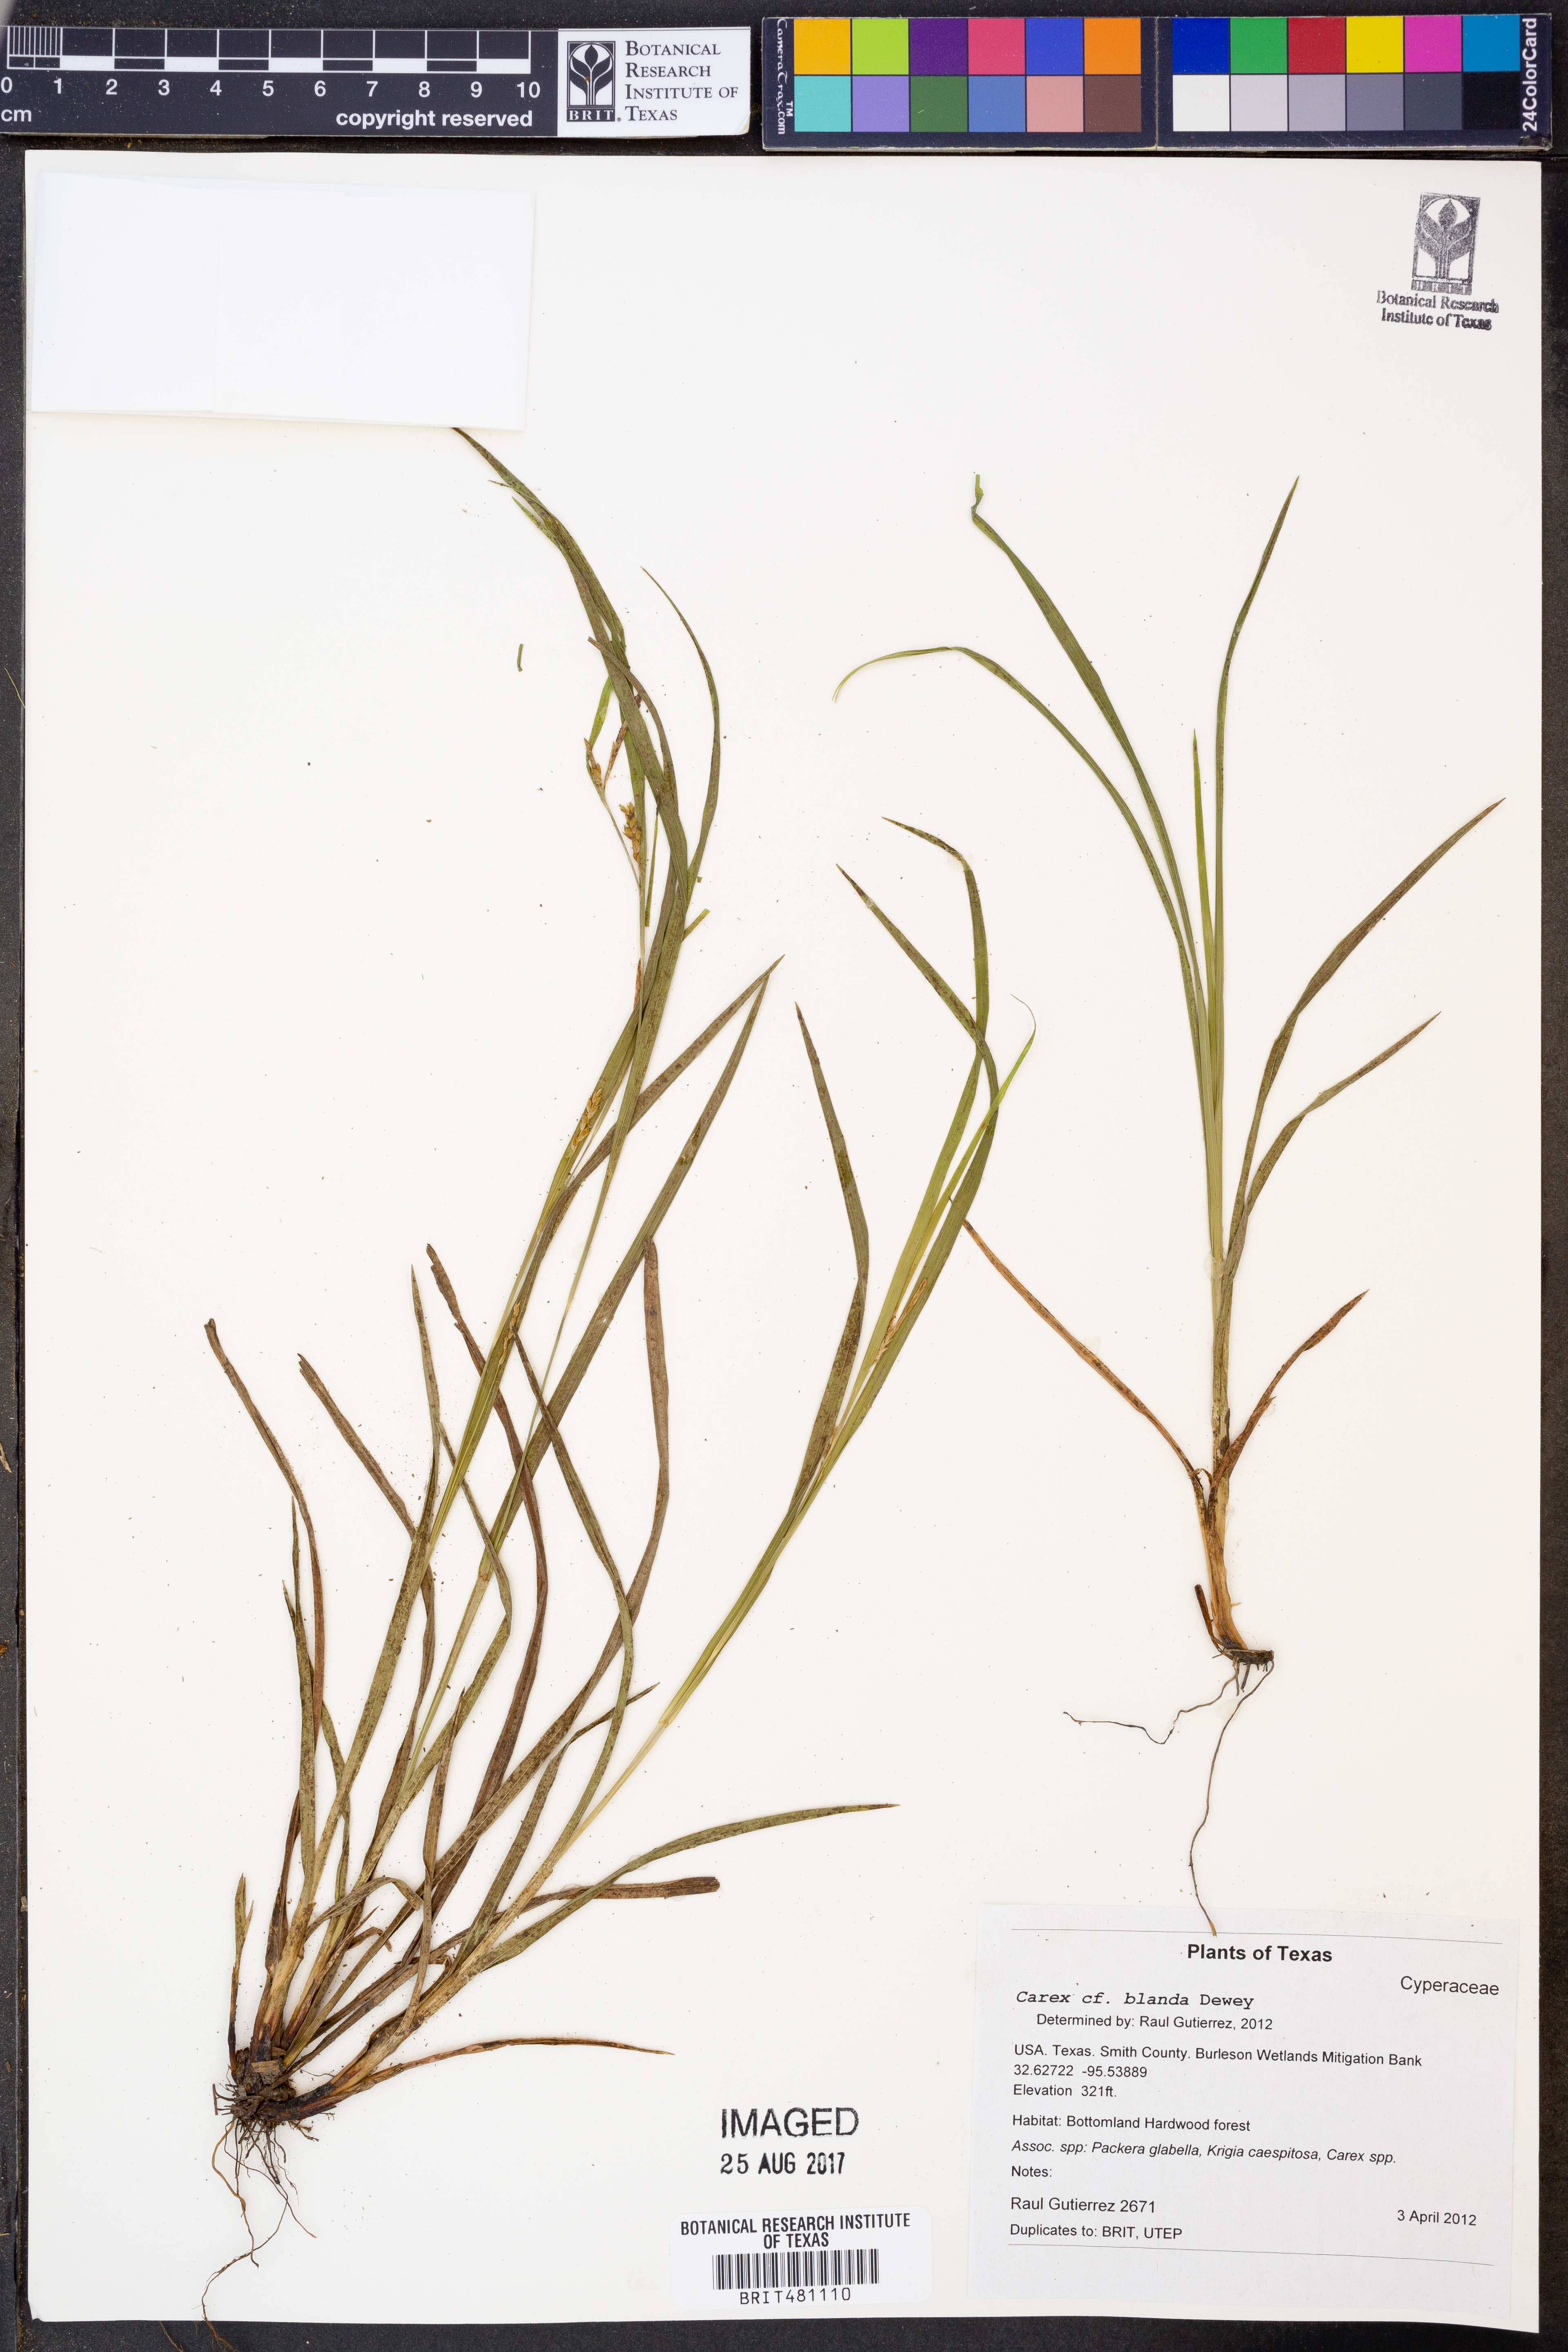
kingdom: Plantae
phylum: Tracheophyta
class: Liliopsida
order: Poales
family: Cyperaceae
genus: Carex
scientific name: Carex blanda
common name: Bland sedge
